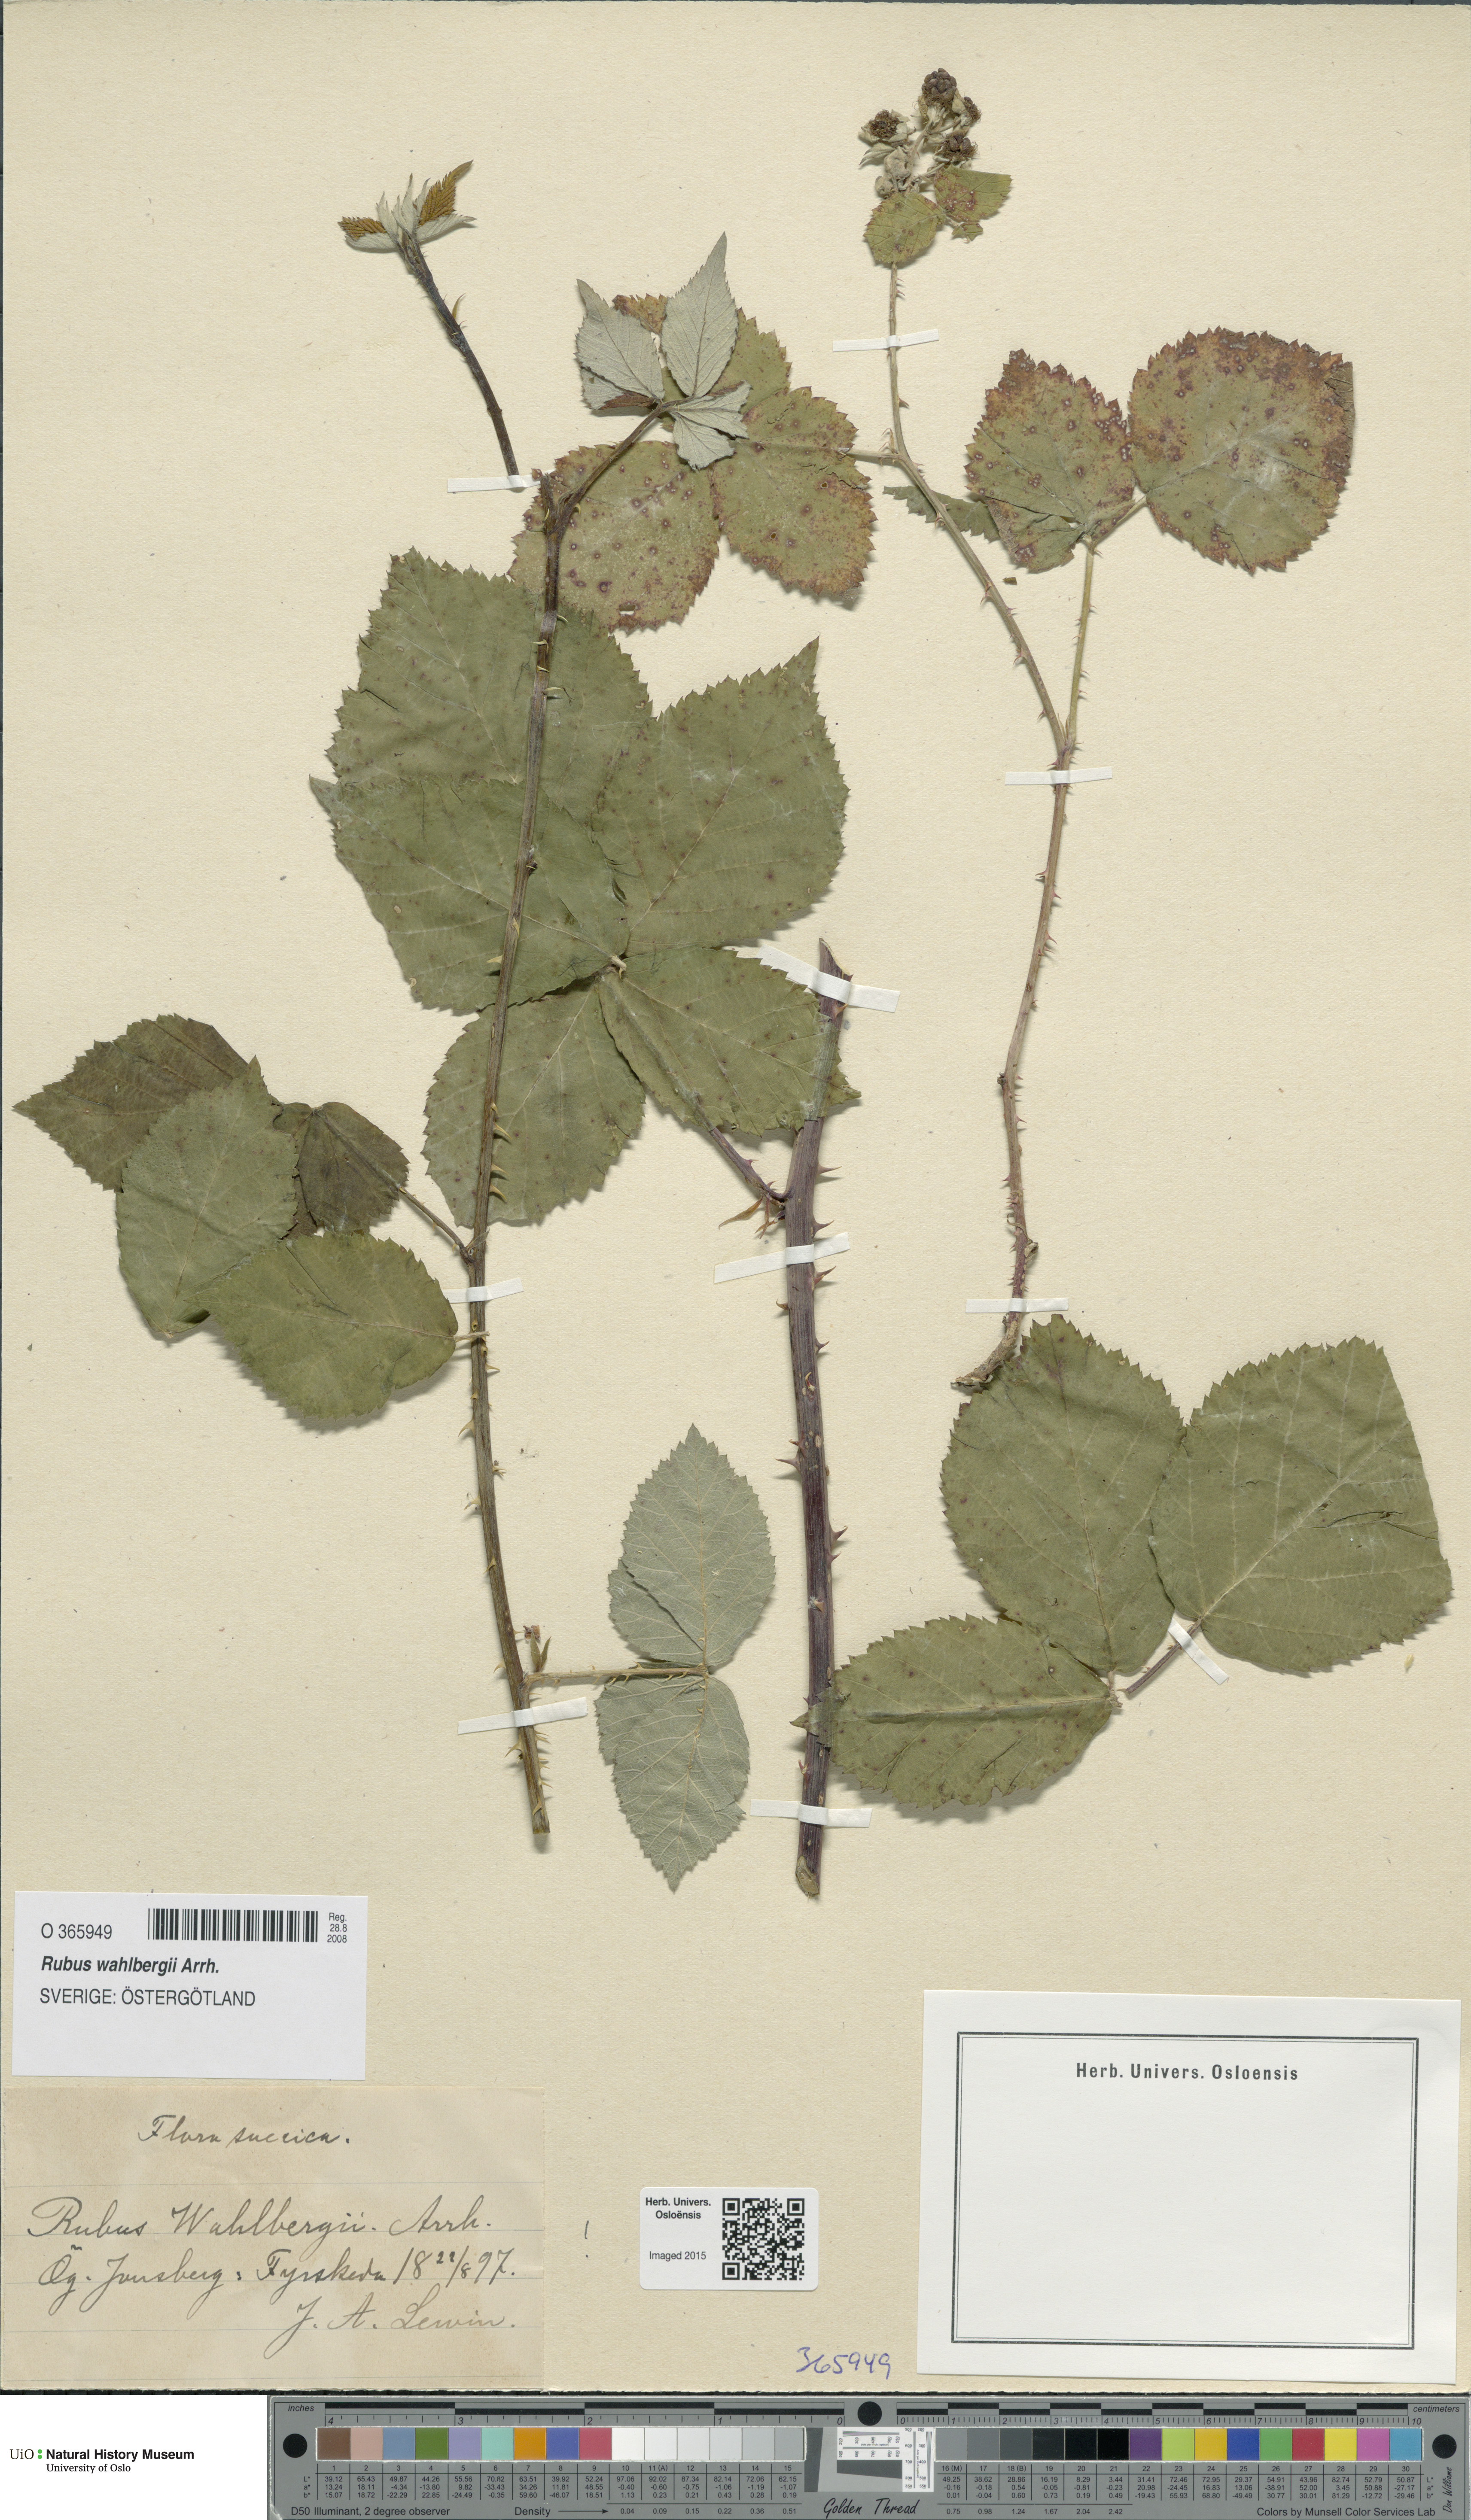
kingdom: Plantae
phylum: Tracheophyta
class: Magnoliopsida
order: Rosales
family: Rosaceae
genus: Rubus
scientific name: Rubus wahlbergii
